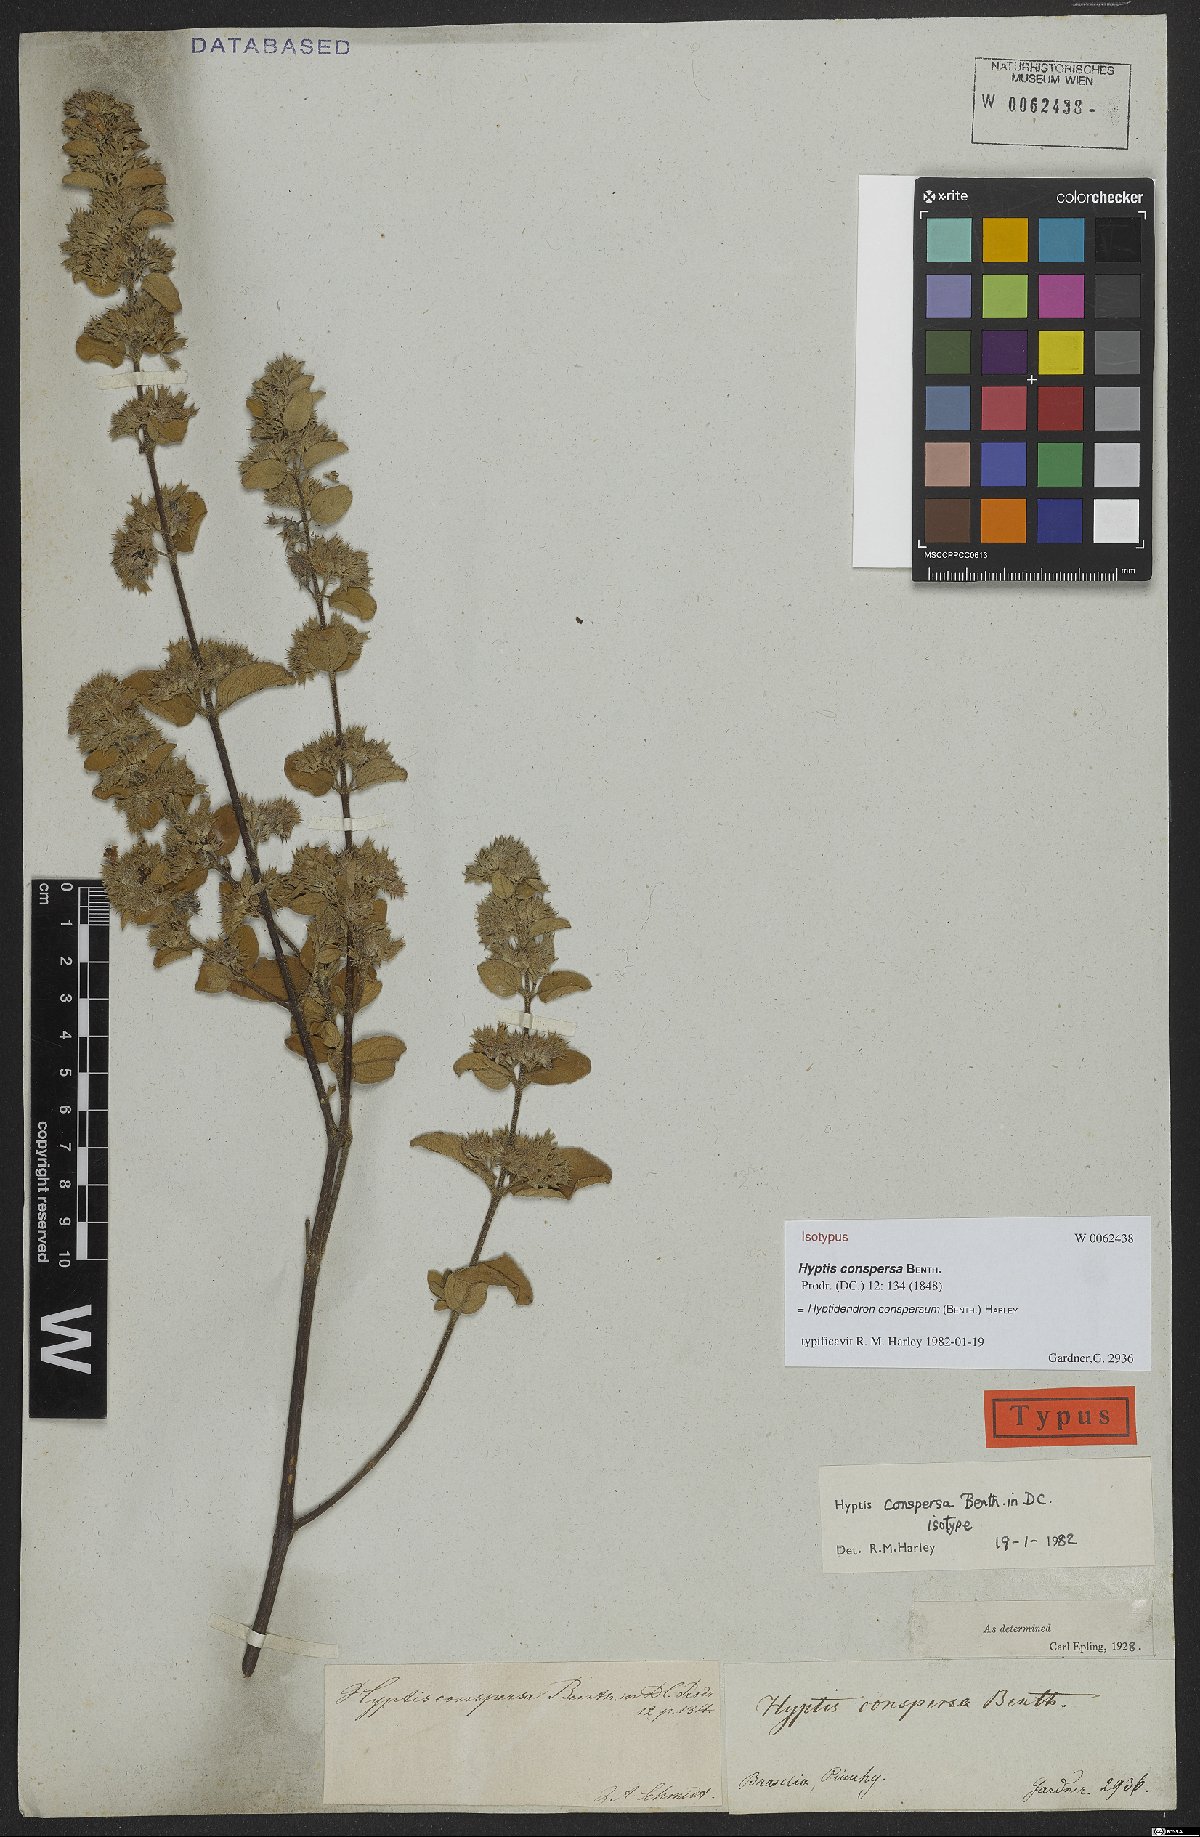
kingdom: Plantae
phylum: Tracheophyta
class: Magnoliopsida
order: Lamiales
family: Lamiaceae
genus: Hyptidendron
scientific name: Hyptidendron conspersum
